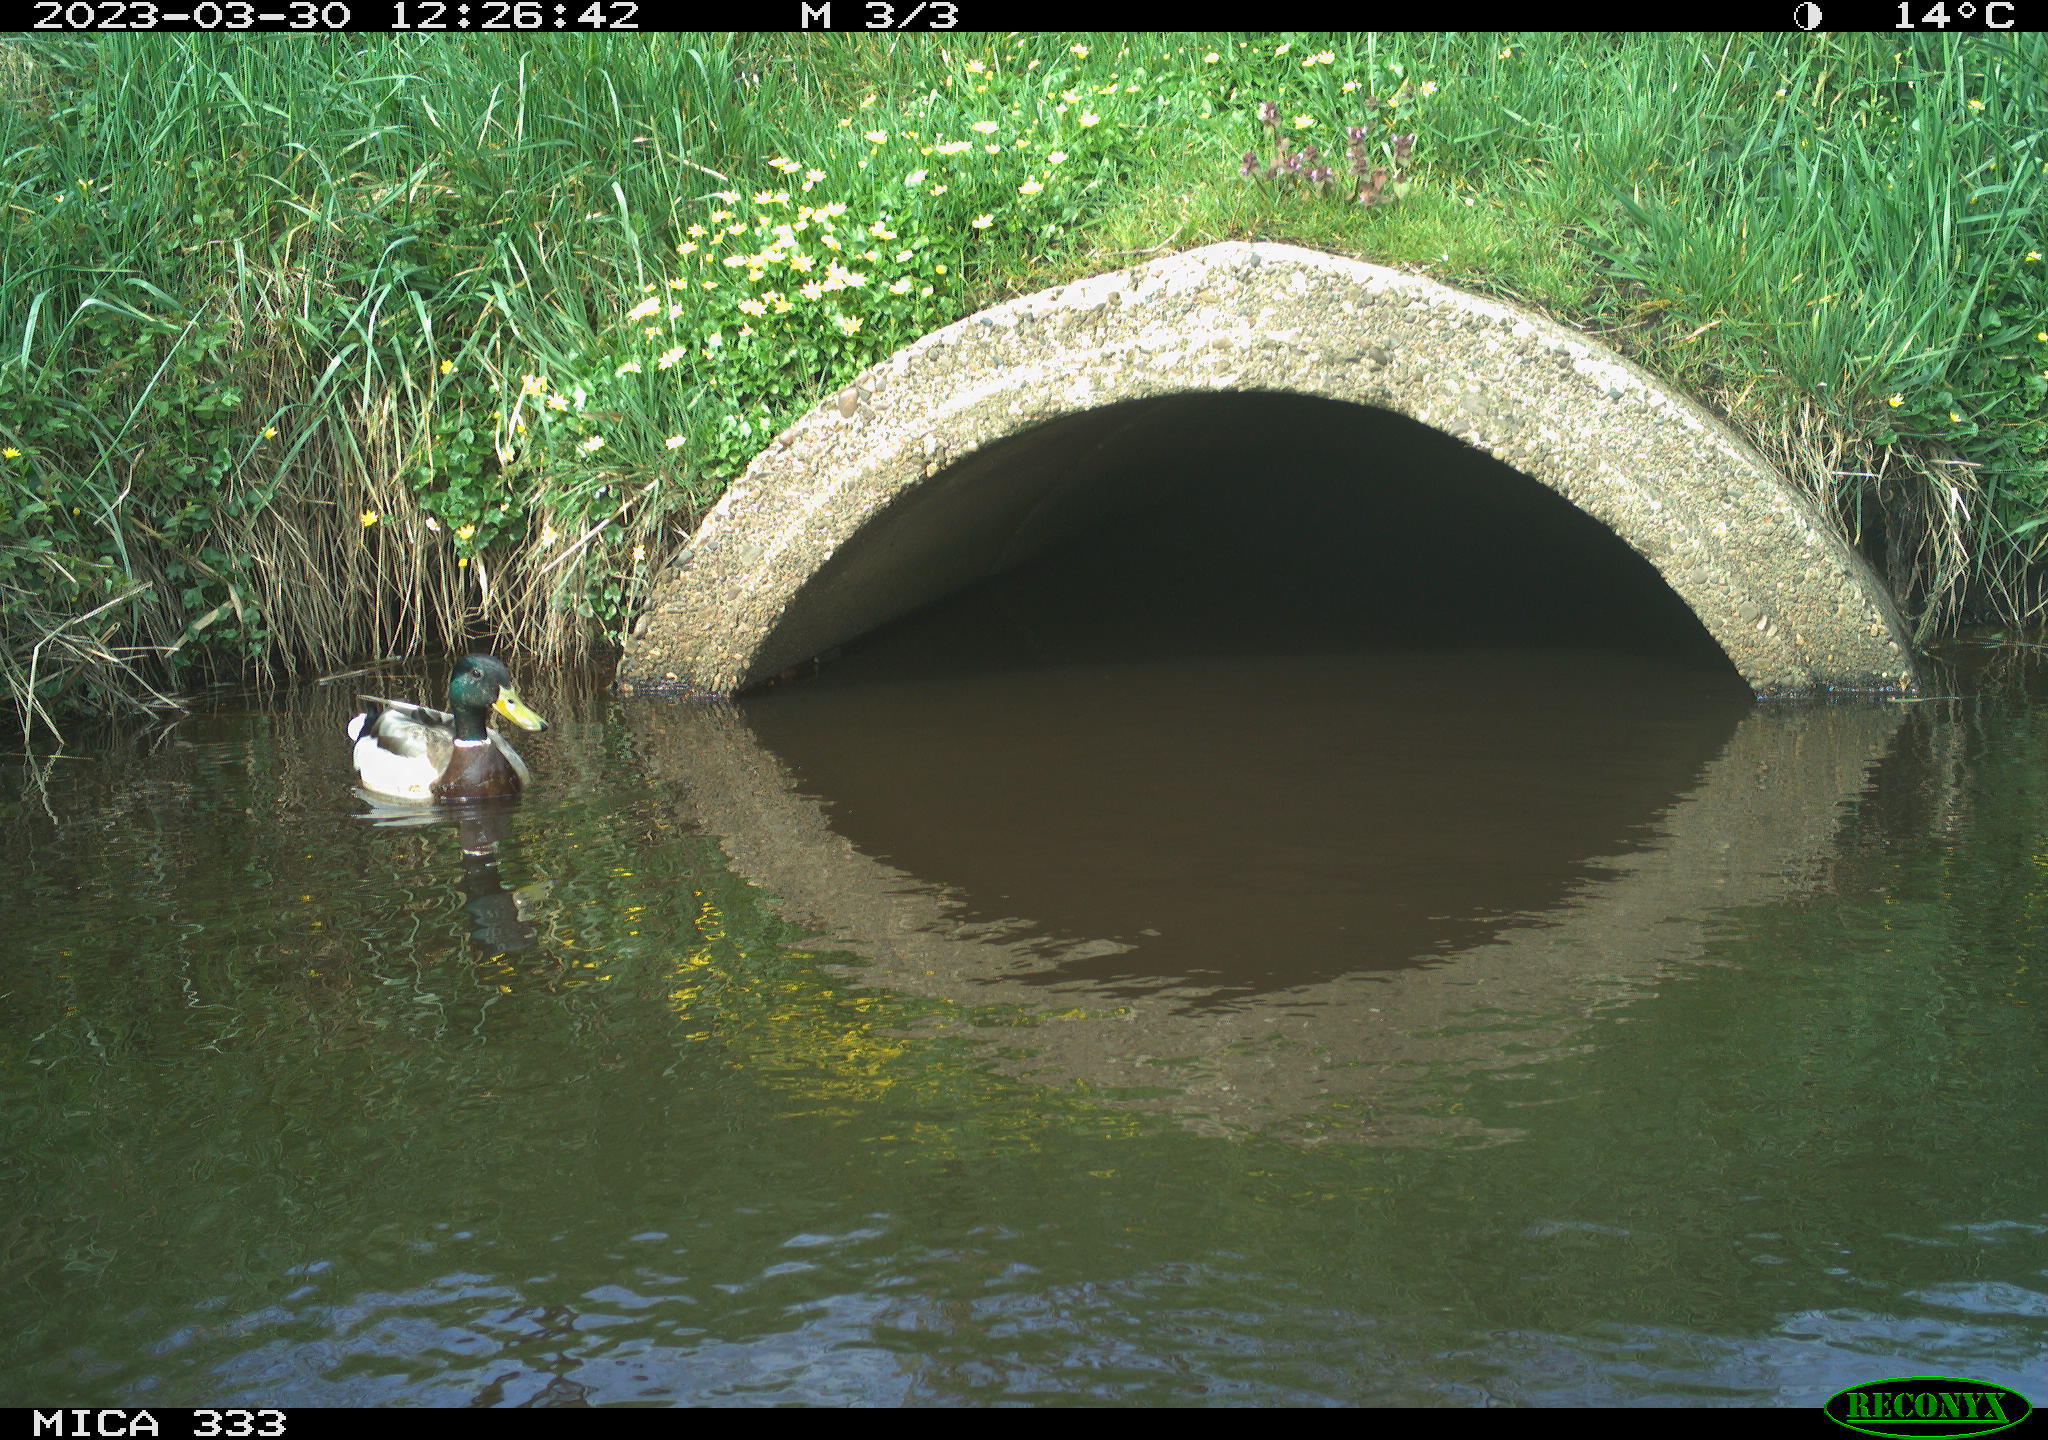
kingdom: Animalia
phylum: Chordata
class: Aves
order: Anseriformes
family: Anatidae
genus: Anas
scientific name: Anas
